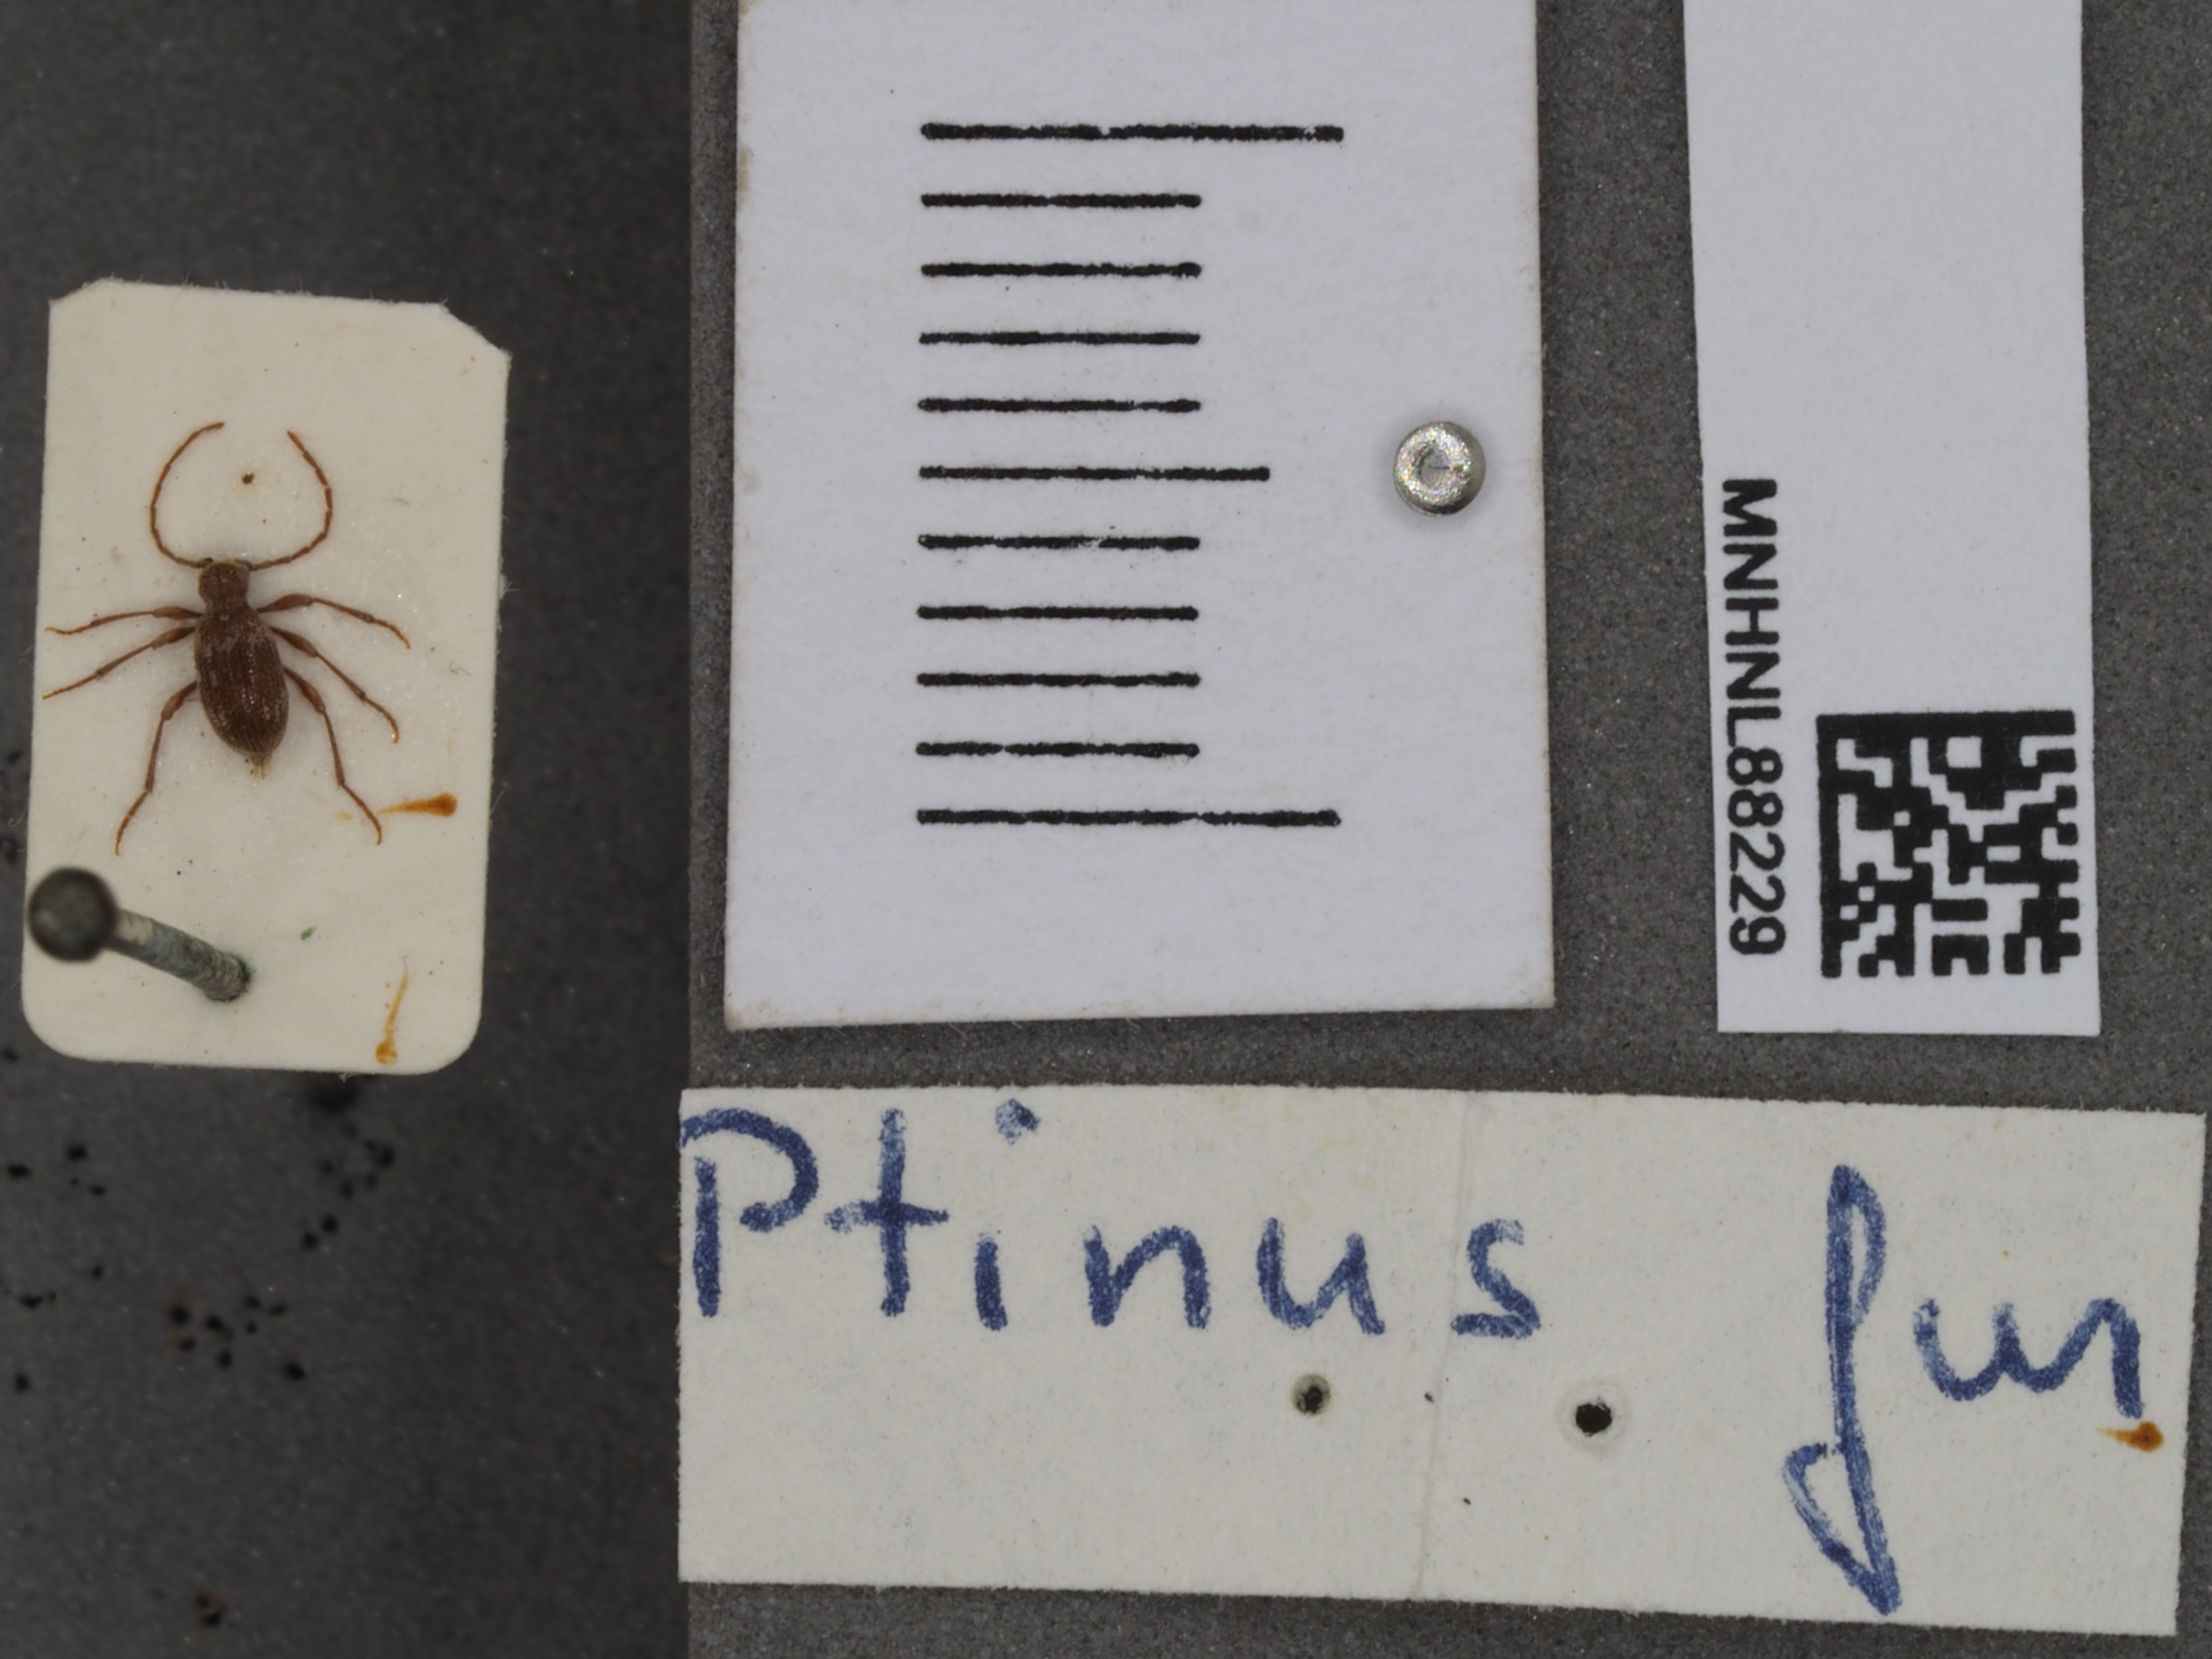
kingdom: Animalia
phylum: Arthropoda
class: Insecta
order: Coleoptera
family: Ptinidae
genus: Ptinus
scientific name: Ptinus fur
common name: White-marked spider beetle
